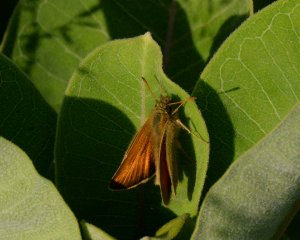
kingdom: Animalia
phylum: Arthropoda
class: Insecta
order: Lepidoptera
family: Hesperiidae
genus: Thymelicus
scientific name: Thymelicus lineola
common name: European Skipper
